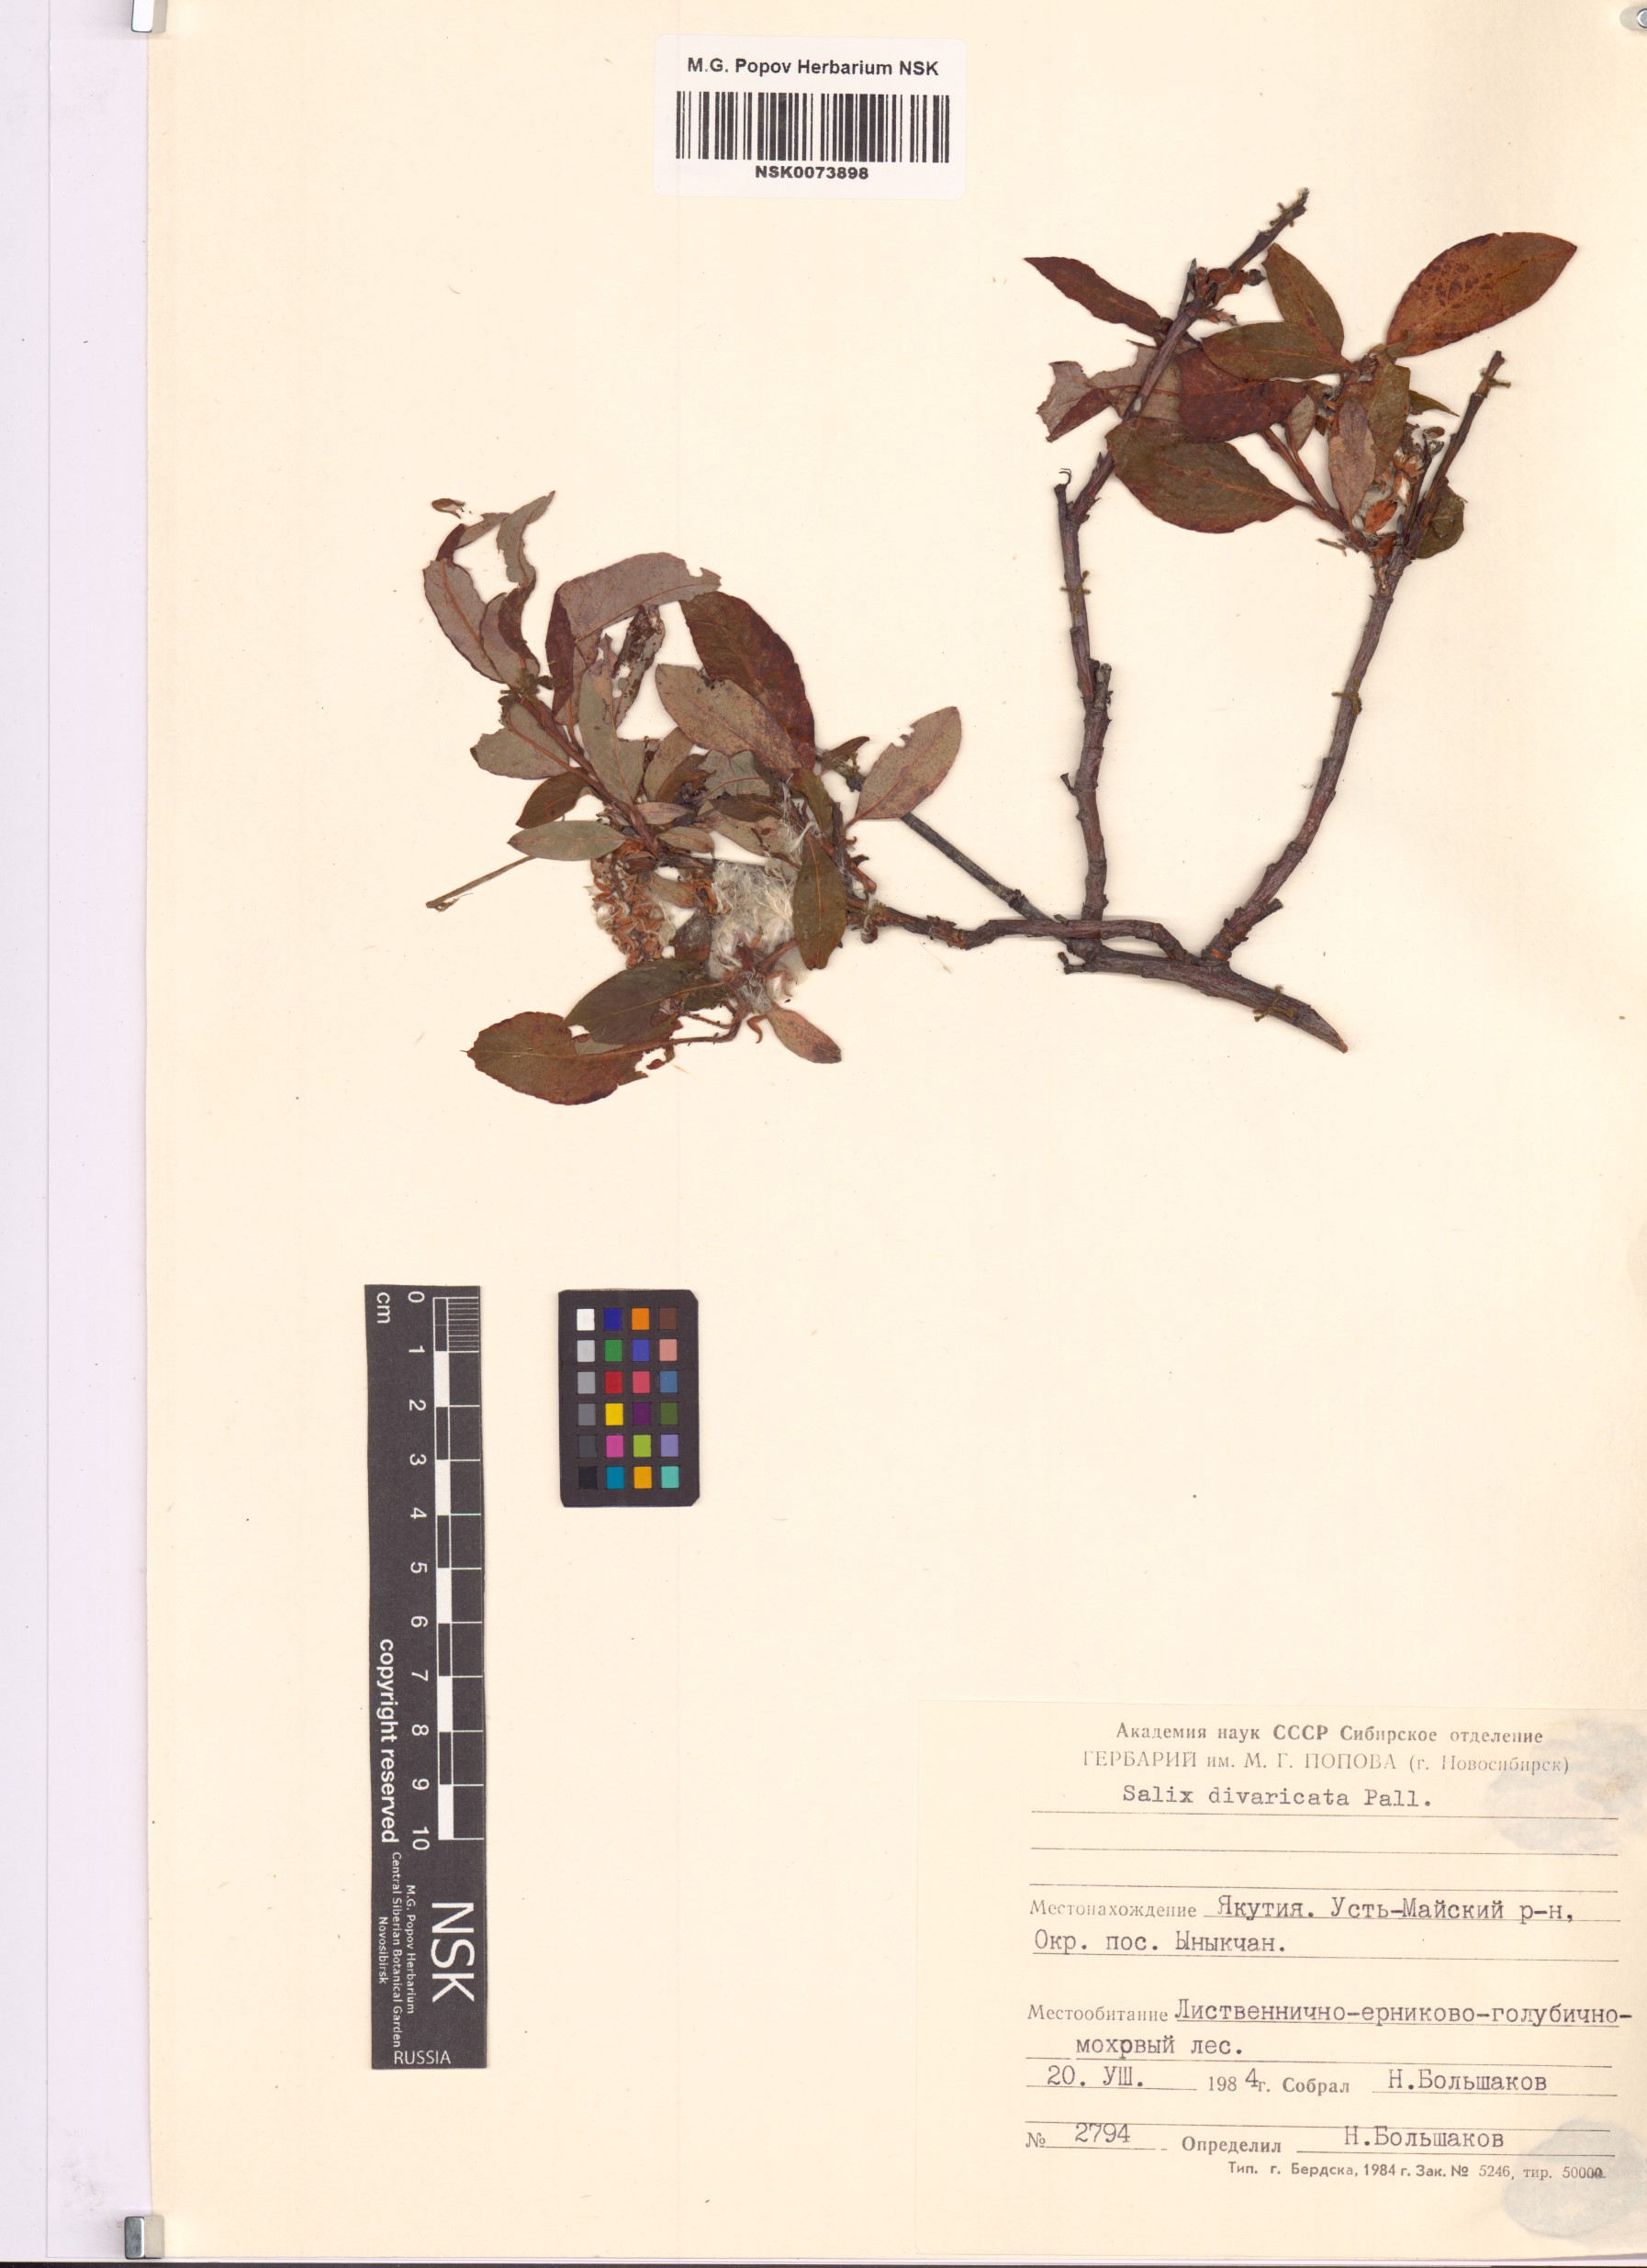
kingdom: Plantae
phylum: Tracheophyta
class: Magnoliopsida
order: Malpighiales
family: Salicaceae
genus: Salix
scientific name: Salix divaricata
